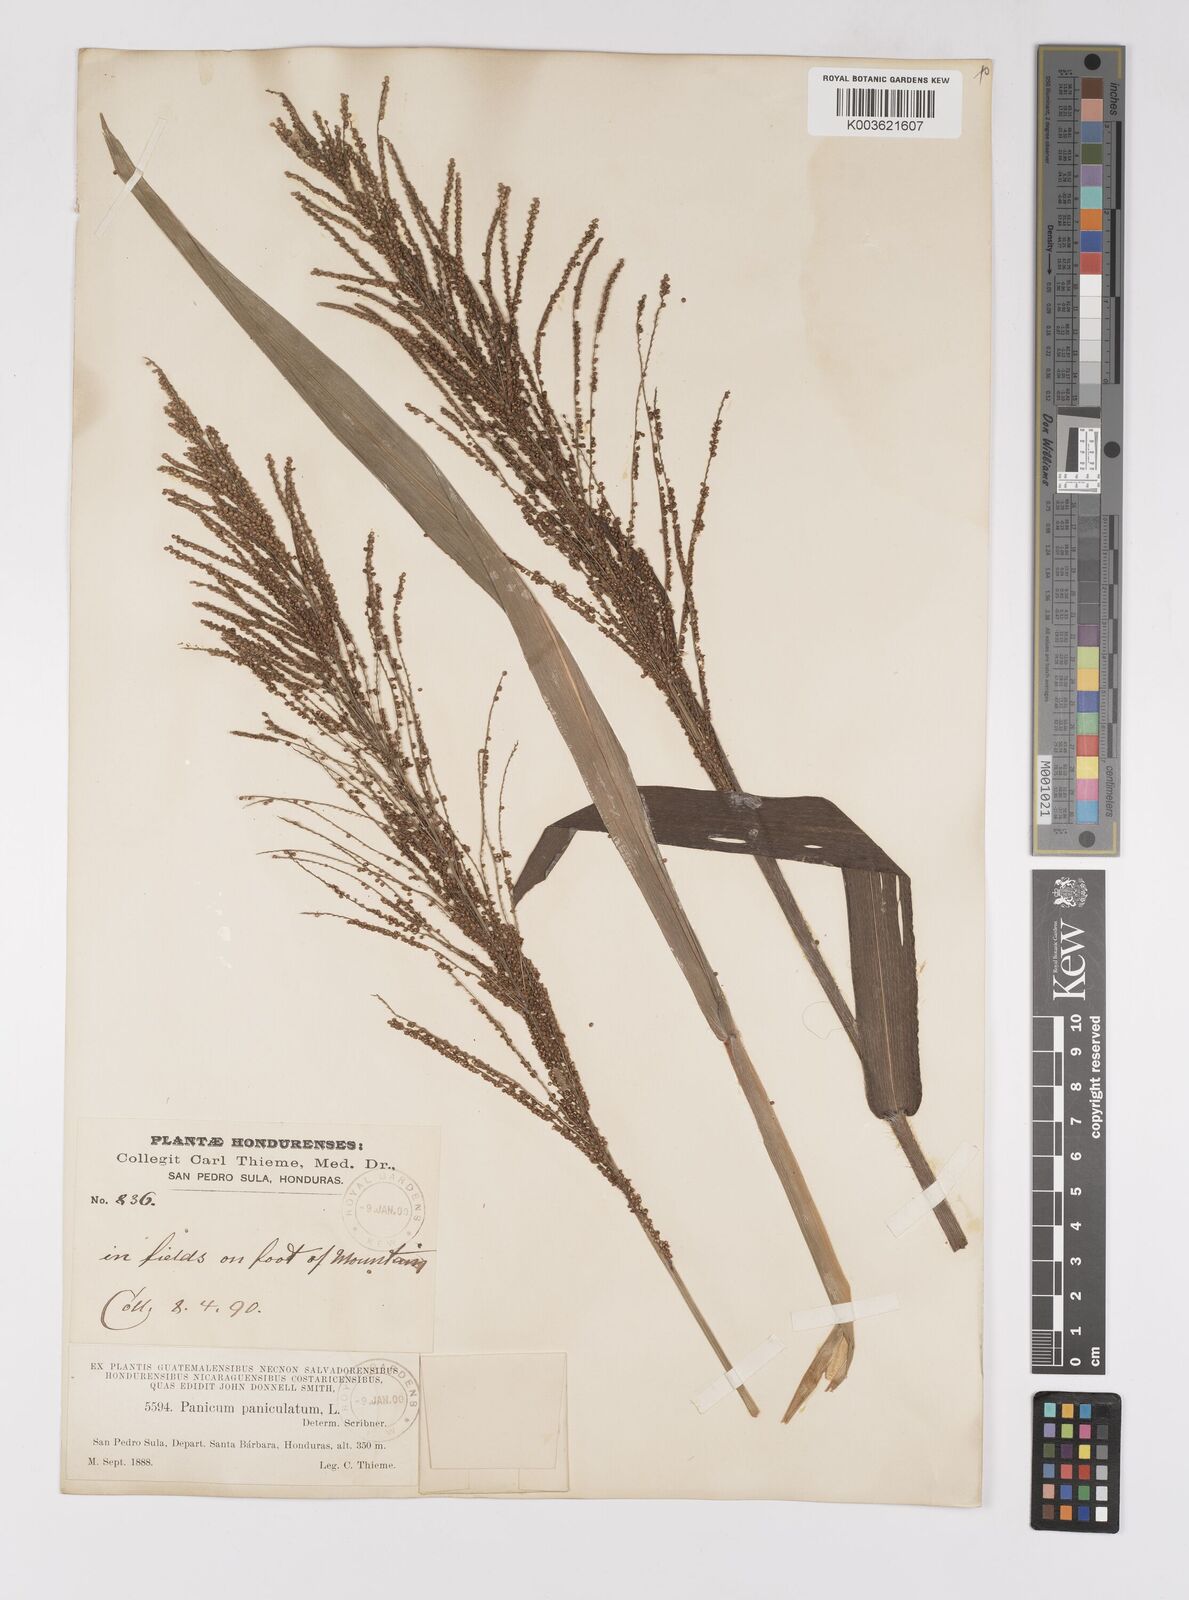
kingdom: Plantae
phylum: Tracheophyta
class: Liliopsida
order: Poales
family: Poaceae
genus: Paspalum
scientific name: Paspalum paniculatum
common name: Arrocillo
